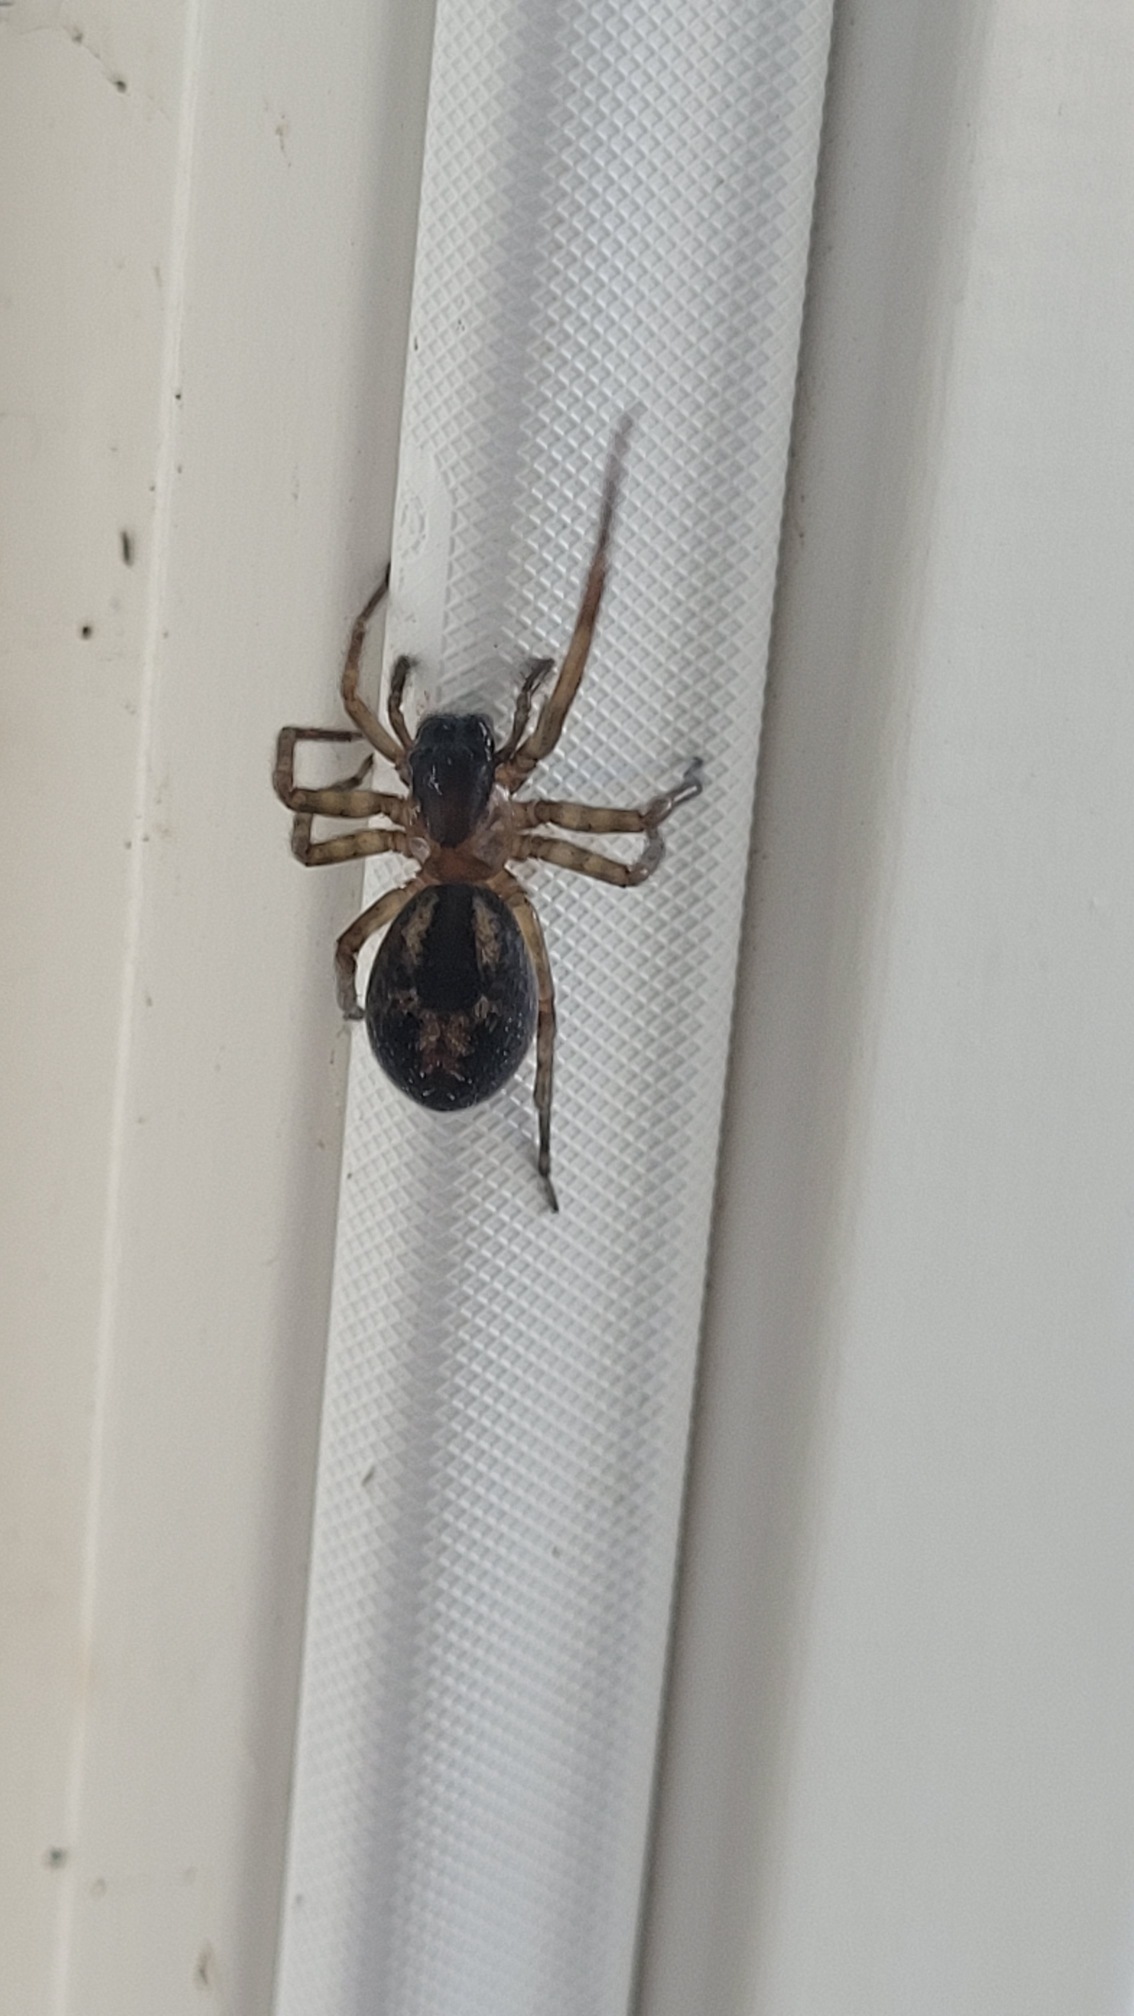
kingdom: Animalia
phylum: Arthropoda
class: Arachnida
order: Araneae
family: Amaurobiidae
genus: Amaurobius
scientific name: Amaurobius
